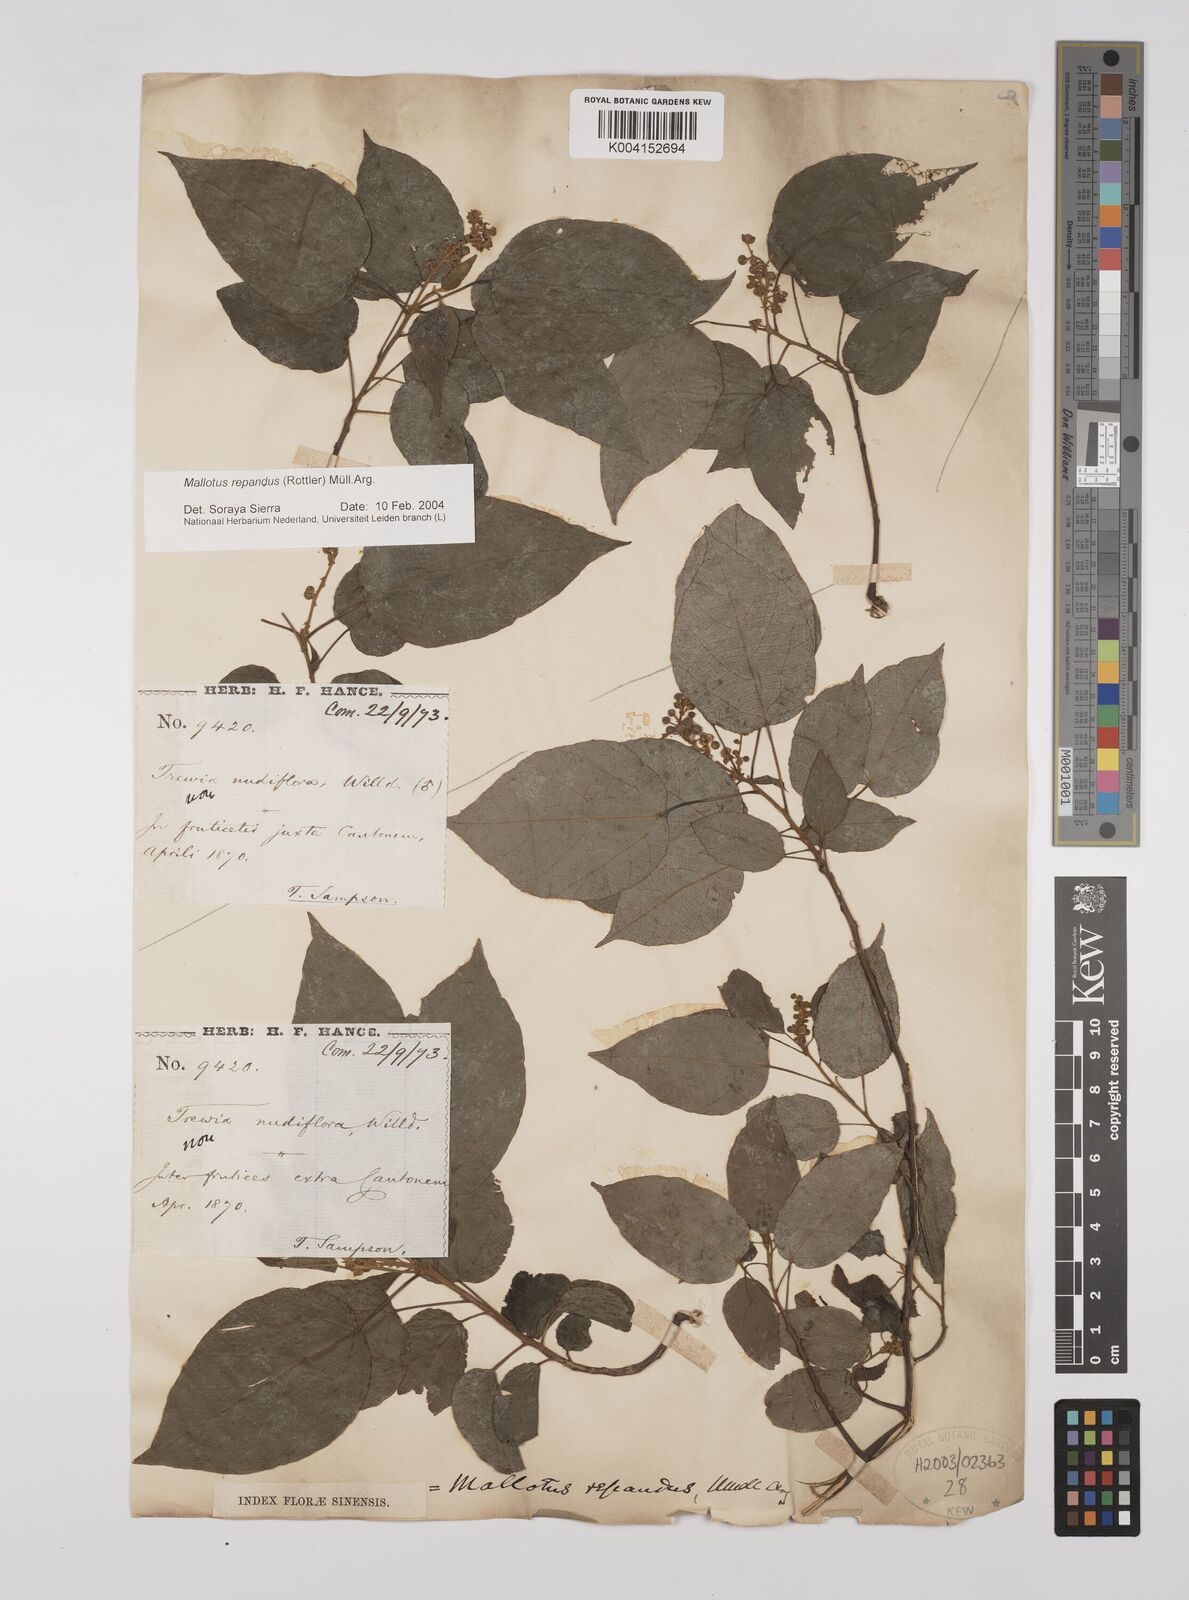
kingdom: Plantae
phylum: Tracheophyta
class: Magnoliopsida
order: Malpighiales
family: Euphorbiaceae
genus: Mallotus
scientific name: Mallotus repandus
